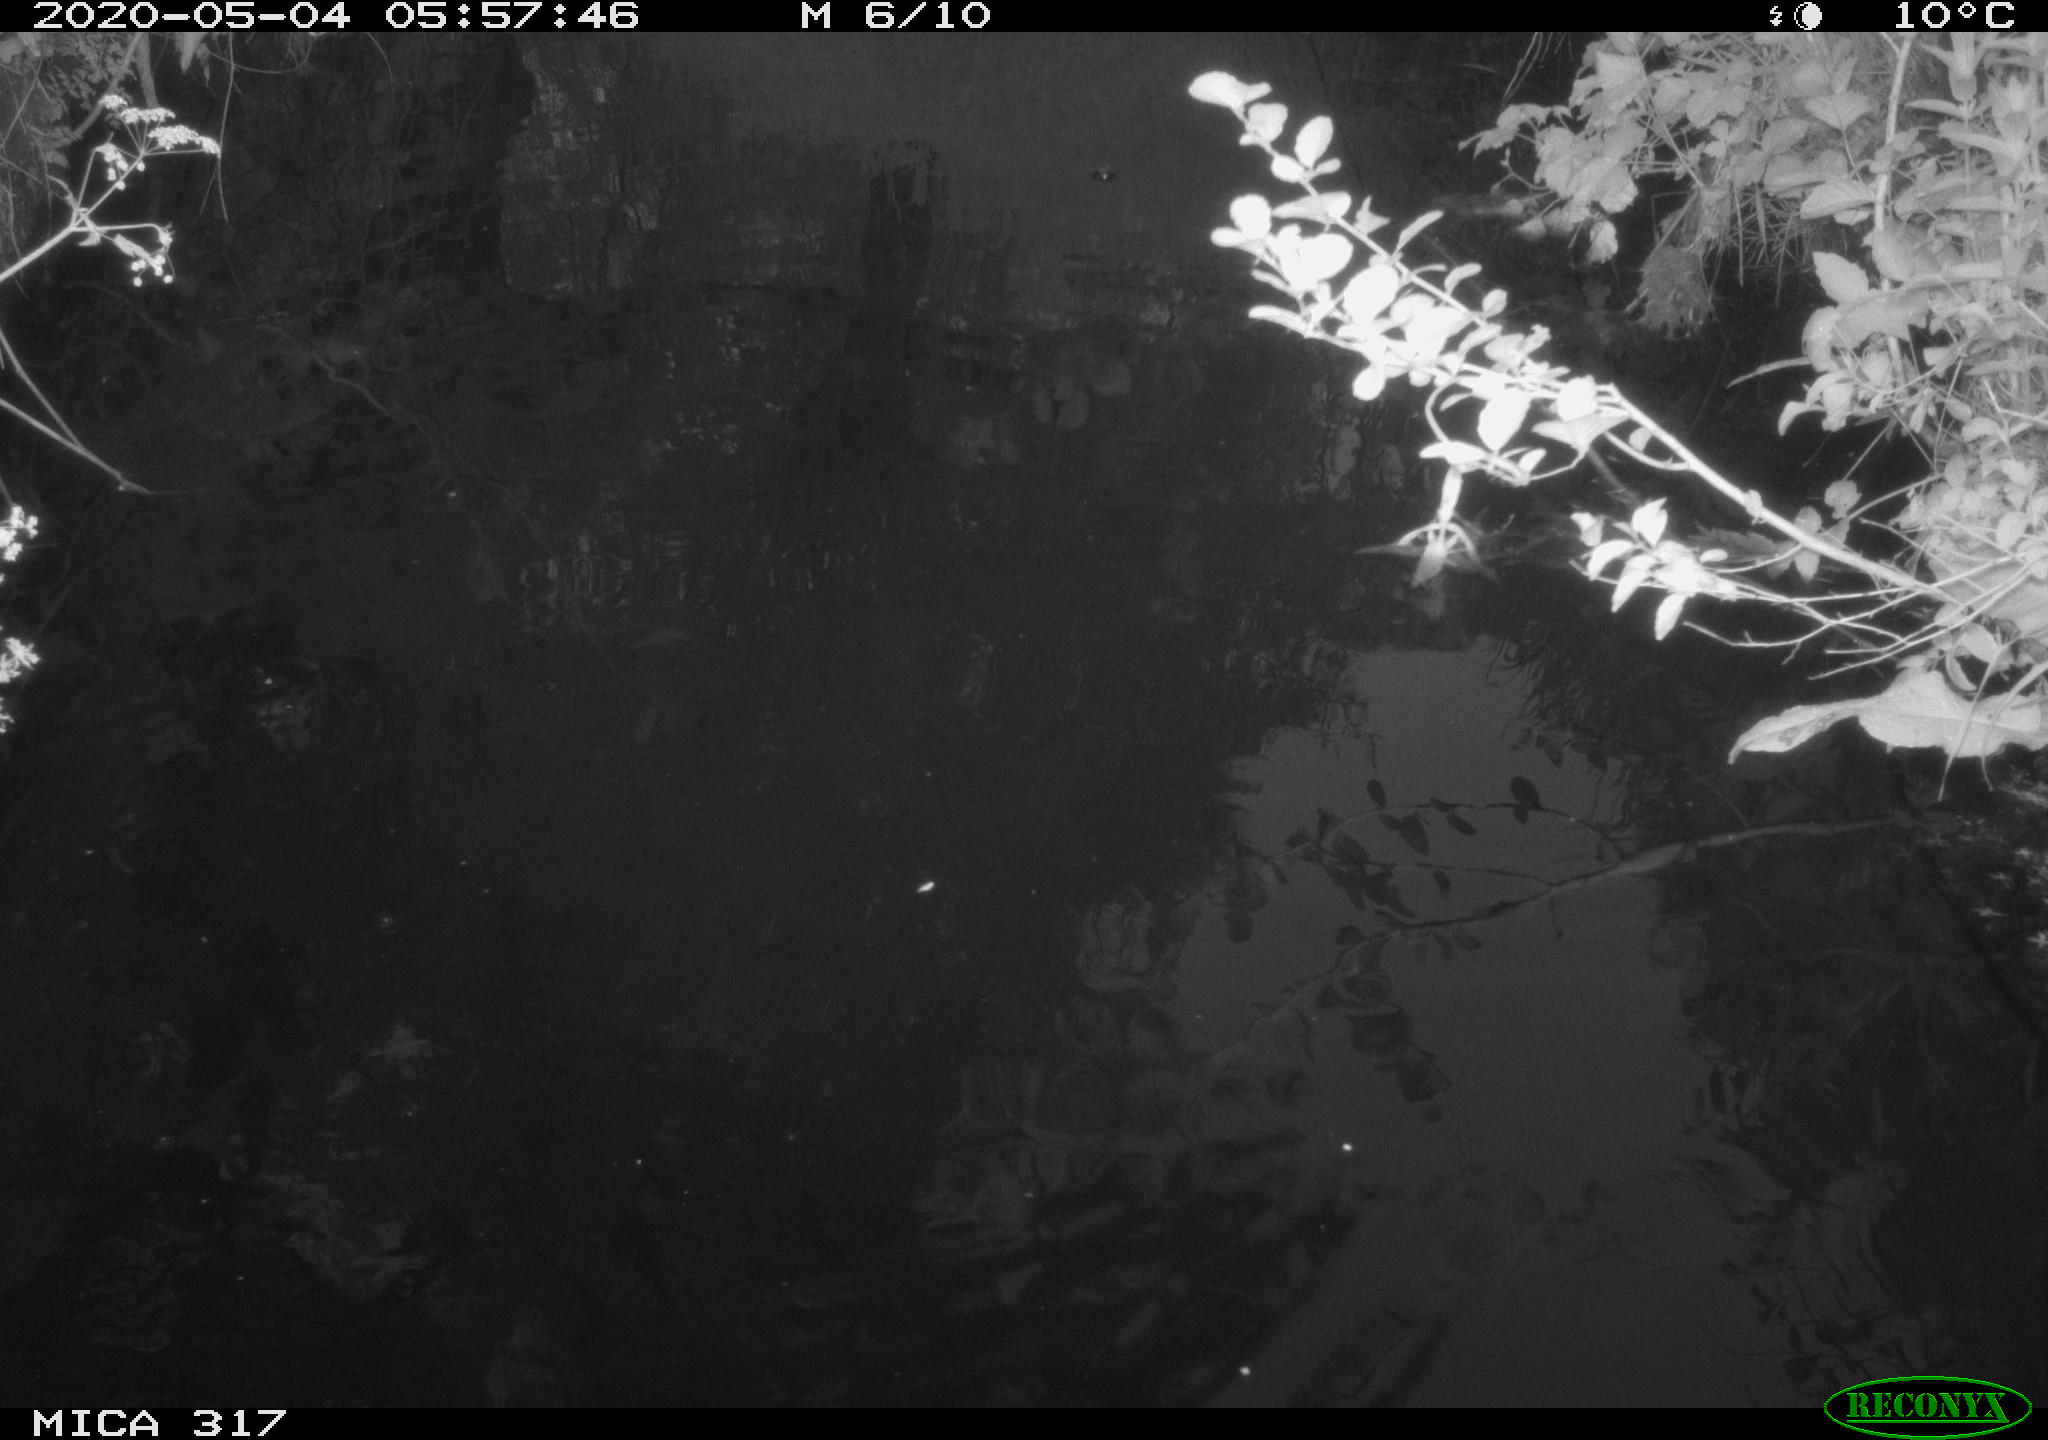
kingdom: Animalia
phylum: Chordata
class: Aves
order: Gruiformes
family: Rallidae
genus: Gallinula
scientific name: Gallinula chloropus
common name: Common moorhen
